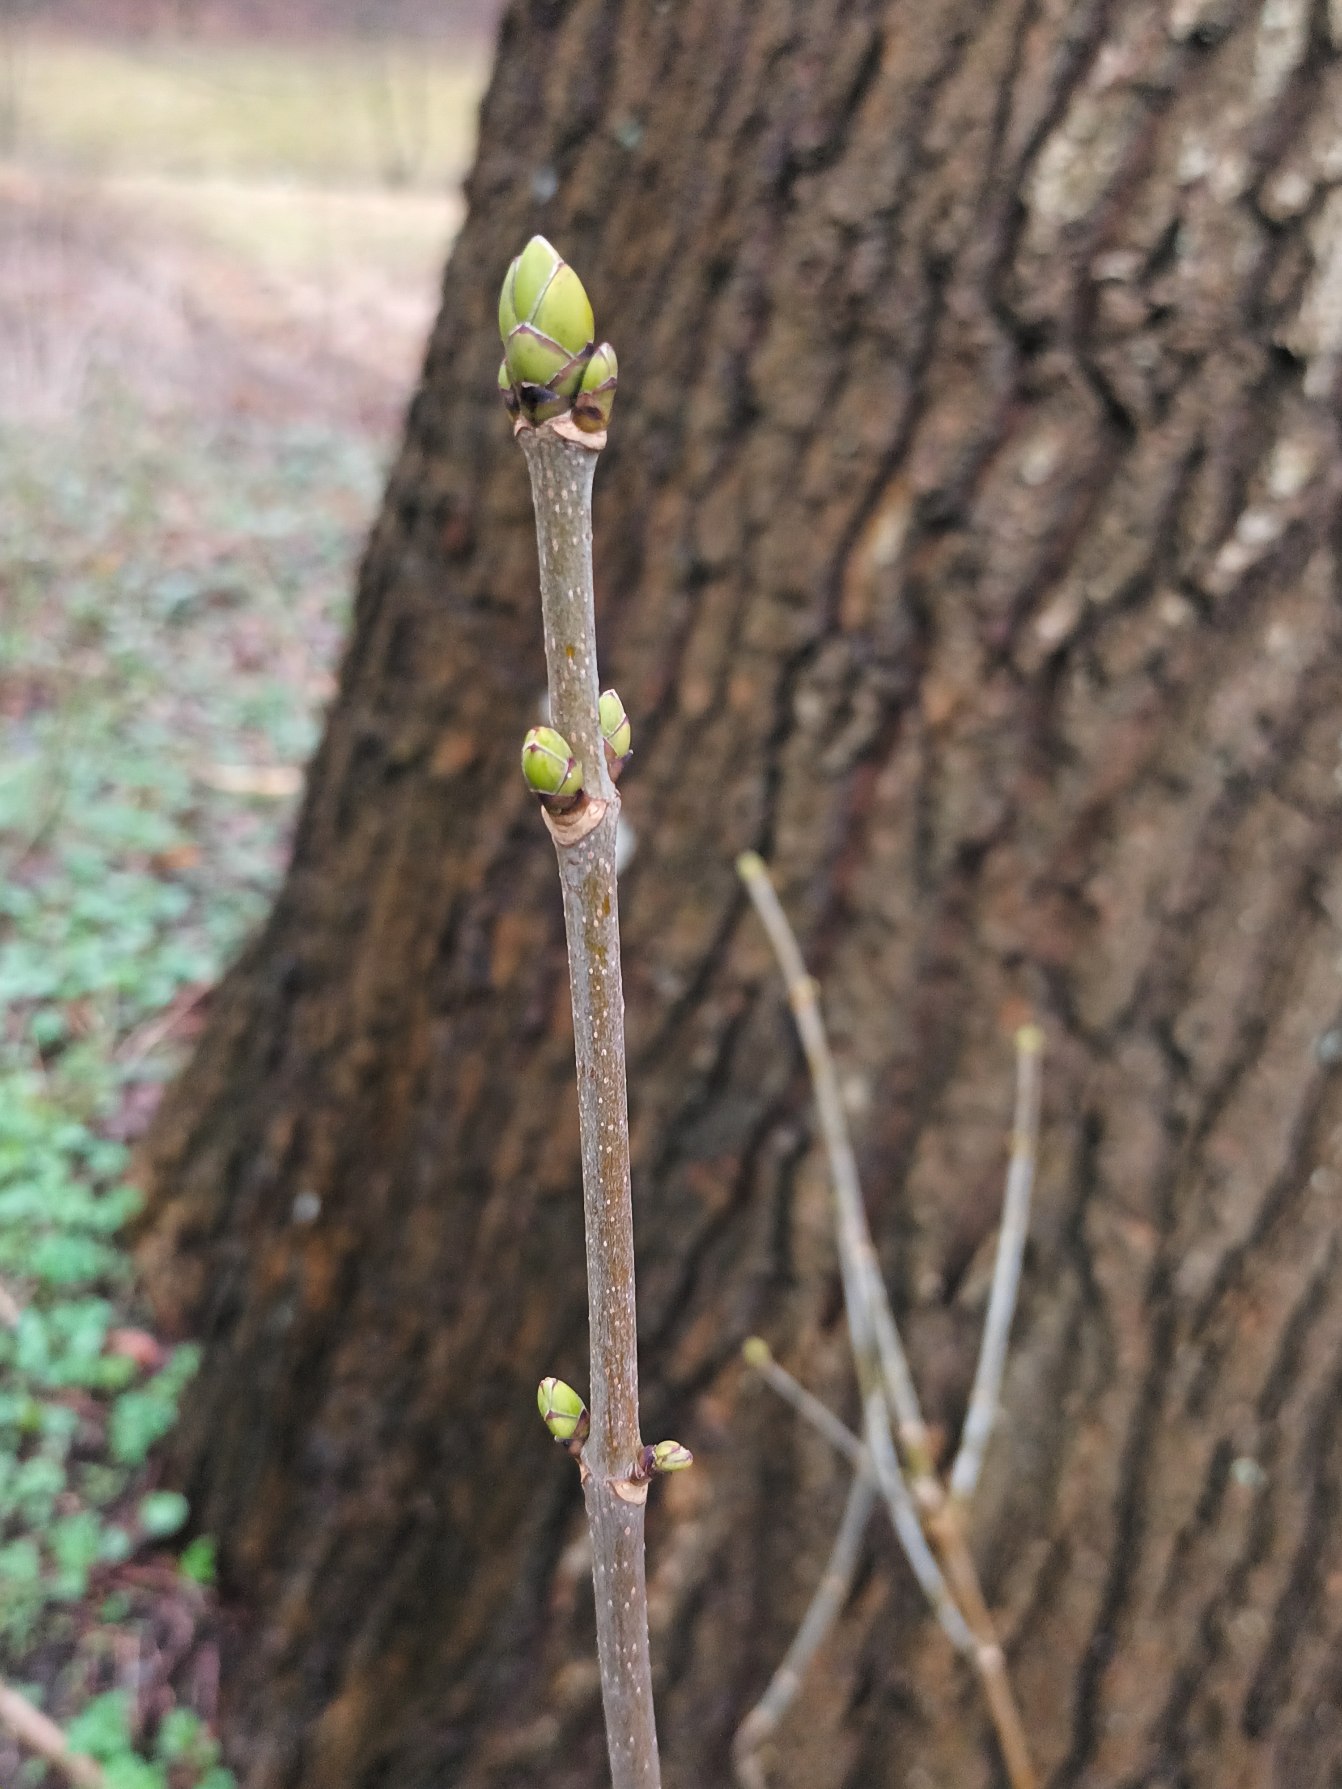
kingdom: Plantae
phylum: Tracheophyta
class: Magnoliopsida
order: Sapindales
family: Sapindaceae
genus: Acer
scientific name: Acer pseudoplatanus
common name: Ahorn
